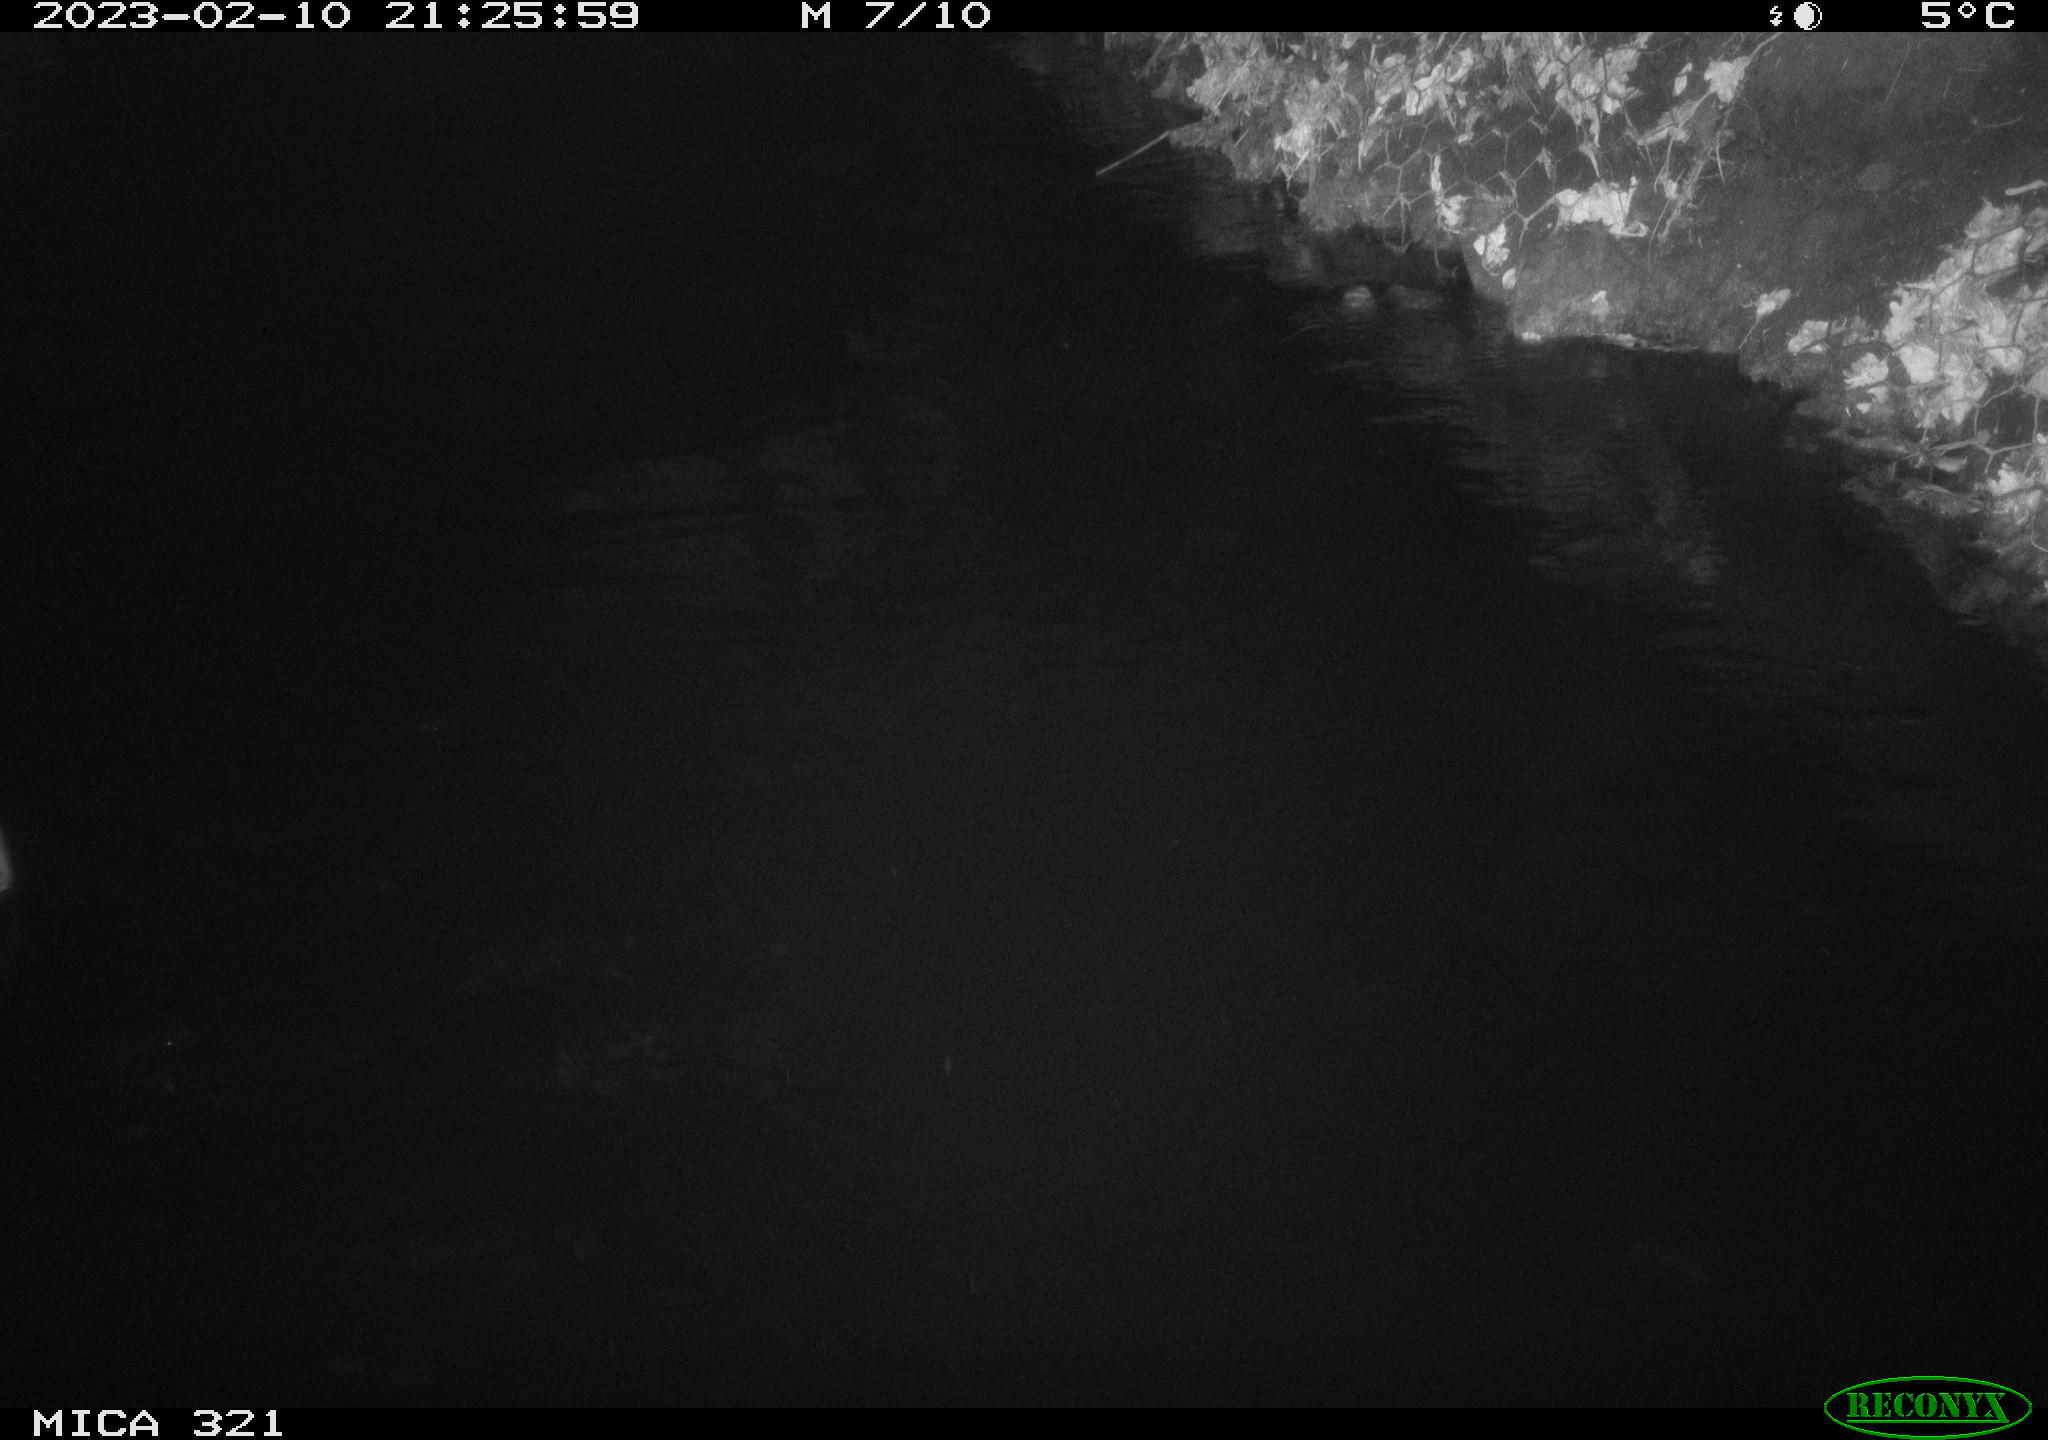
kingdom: Animalia
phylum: Chordata
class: Aves
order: Anseriformes
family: Anatidae
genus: Anas
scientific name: Anas
